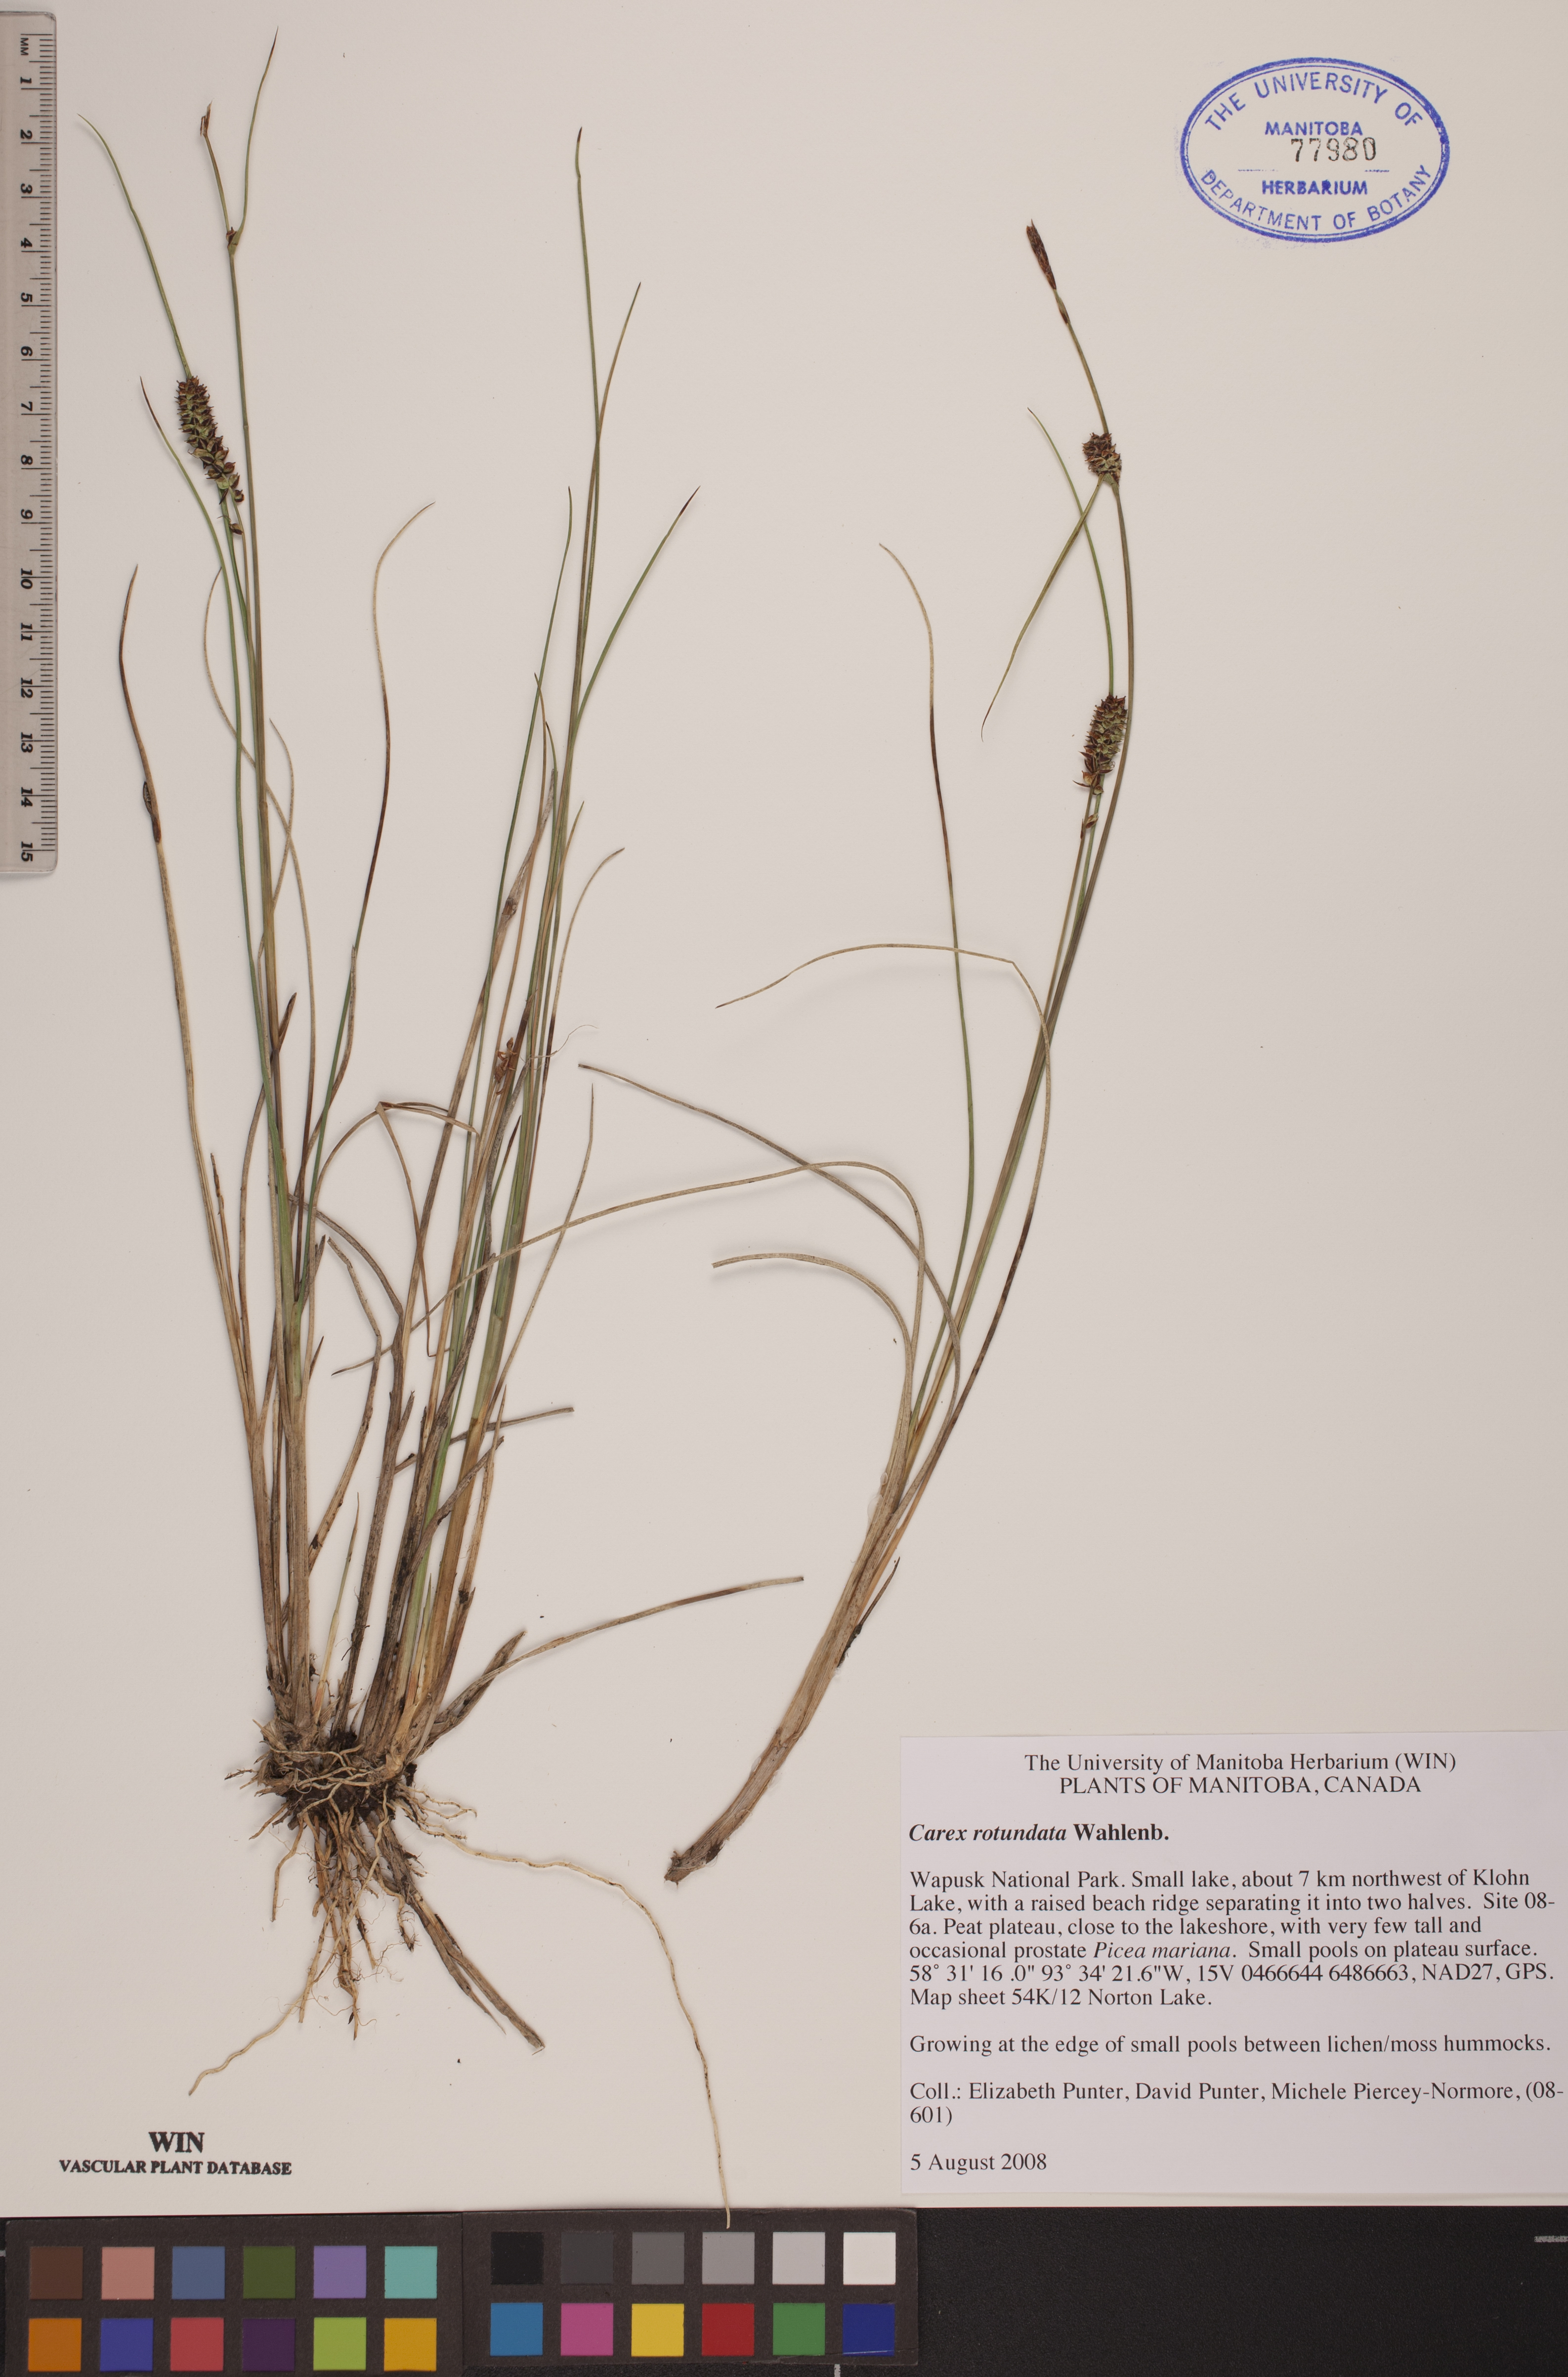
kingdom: Plantae
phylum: Tracheophyta
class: Liliopsida
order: Poales
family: Cyperaceae
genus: Carex
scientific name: Carex rotundata
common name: Round-fruited sedge
